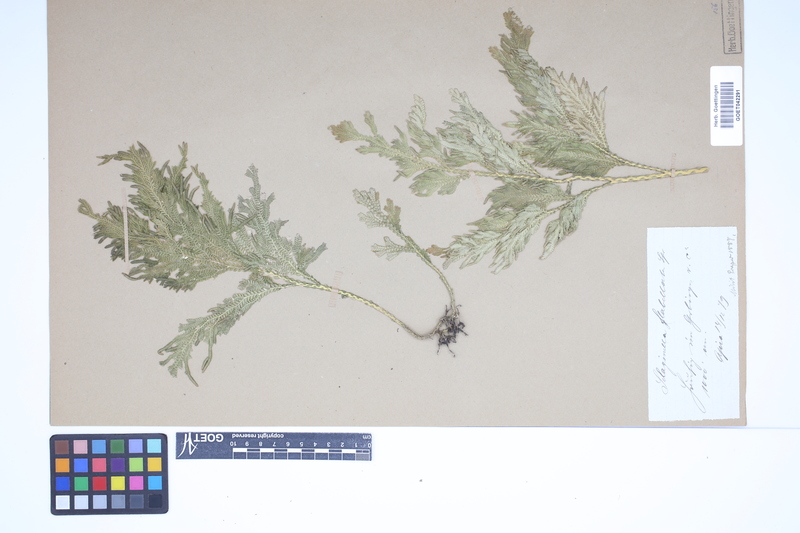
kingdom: Plantae
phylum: Tracheophyta
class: Lycopodiopsida
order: Selaginellales
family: Selaginellaceae
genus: Selaginella
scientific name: Selaginella flabellata
